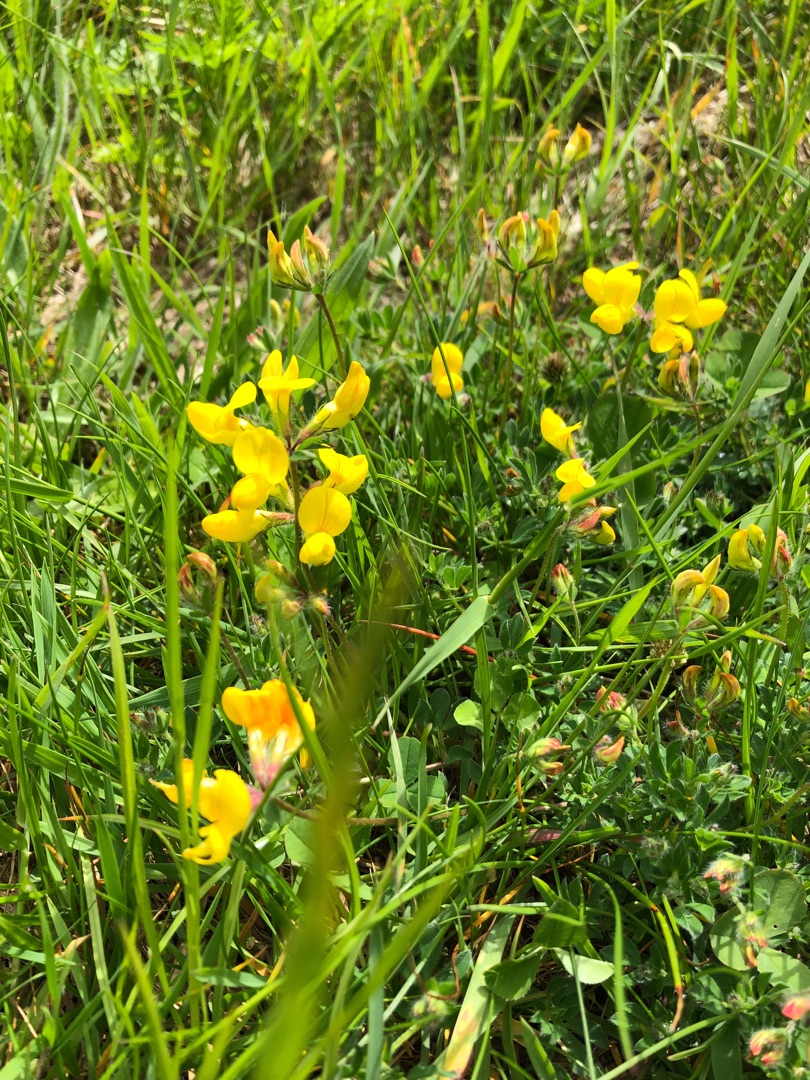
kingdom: Plantae
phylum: Tracheophyta
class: Magnoliopsida
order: Fabales
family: Fabaceae
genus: Lotus
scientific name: Lotus corniculatus
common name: Almindelig kællingetand
